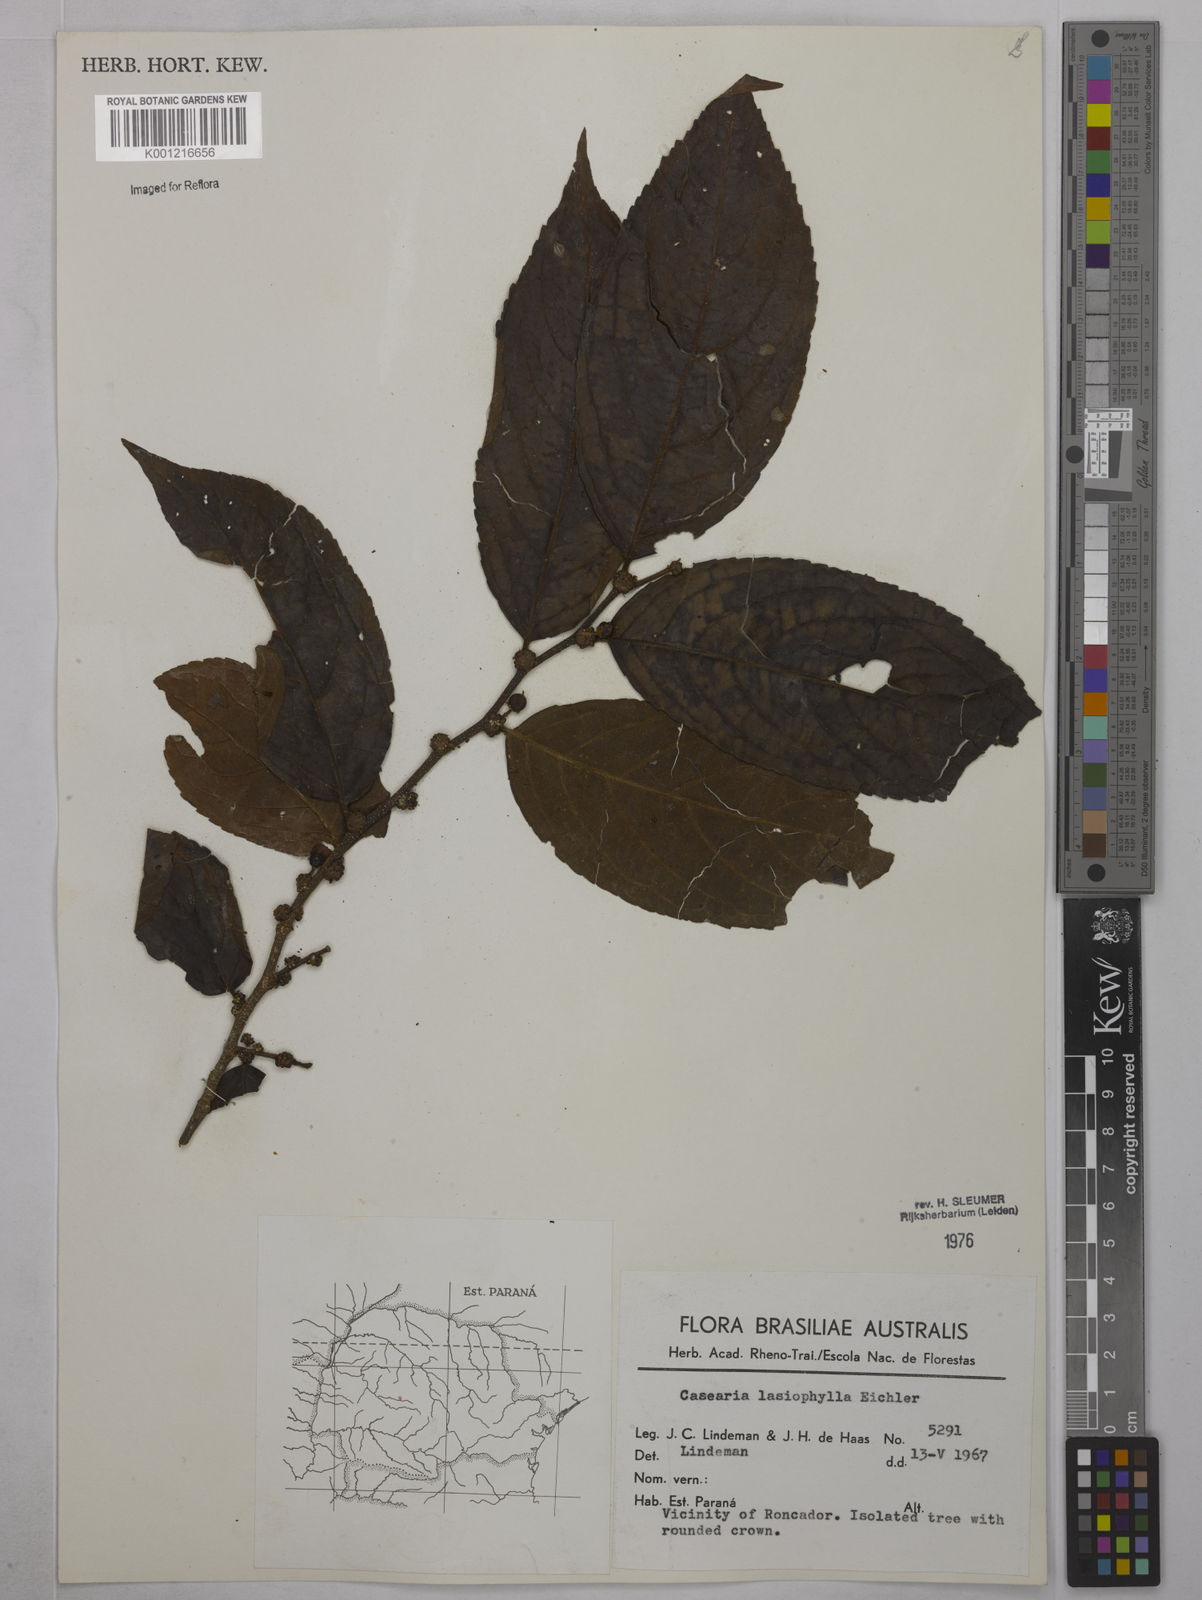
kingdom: Plantae
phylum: Tracheophyta
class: Magnoliopsida
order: Malpighiales
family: Salicaceae
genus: Casearia
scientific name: Casearia lasiophylla
